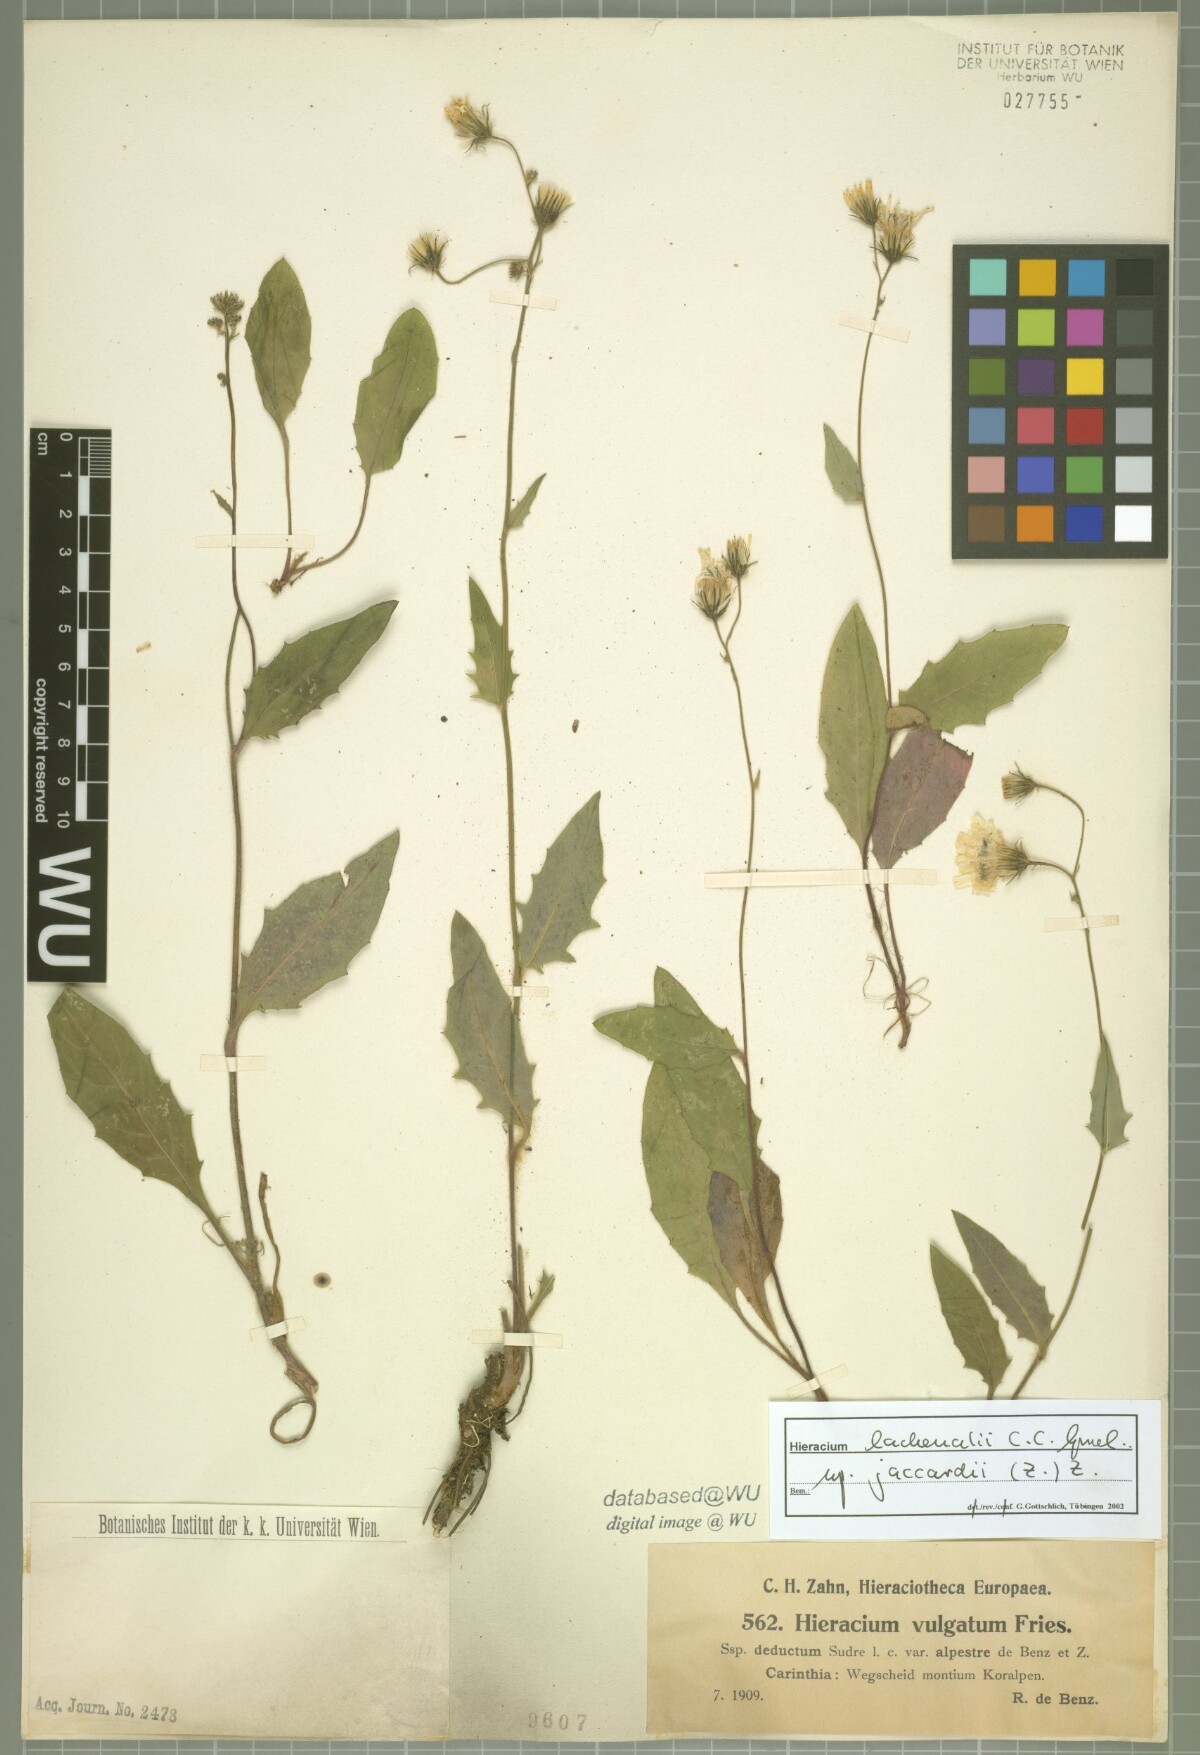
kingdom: Plantae
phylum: Tracheophyta
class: Magnoliopsida
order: Asterales
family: Asteraceae
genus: Hieracium
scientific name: Hieracium lachenalii
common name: Common hawkweed
